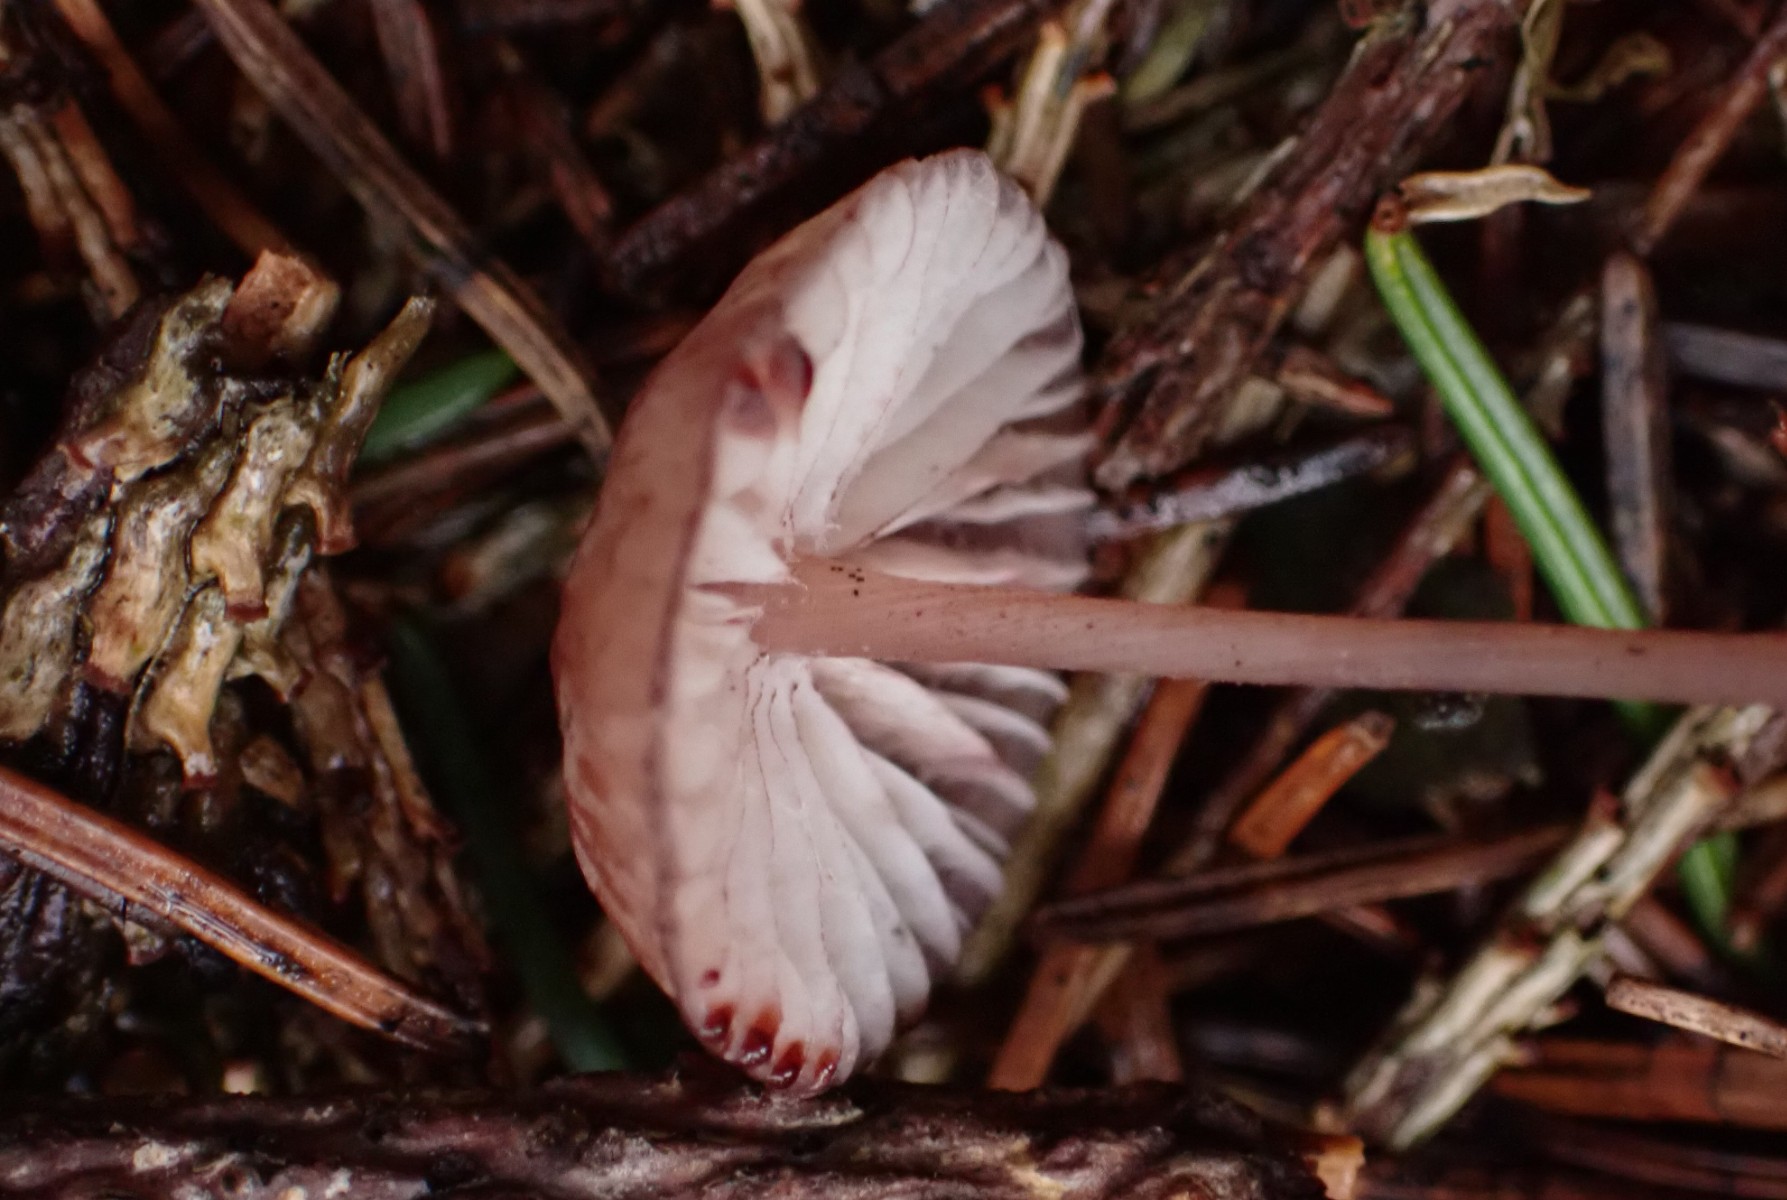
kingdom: Fungi
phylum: Basidiomycota
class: Agaricomycetes
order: Agaricales
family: Mycenaceae
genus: Mycena
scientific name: Mycena sanguinolenta
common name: rødmælket huesvamp
